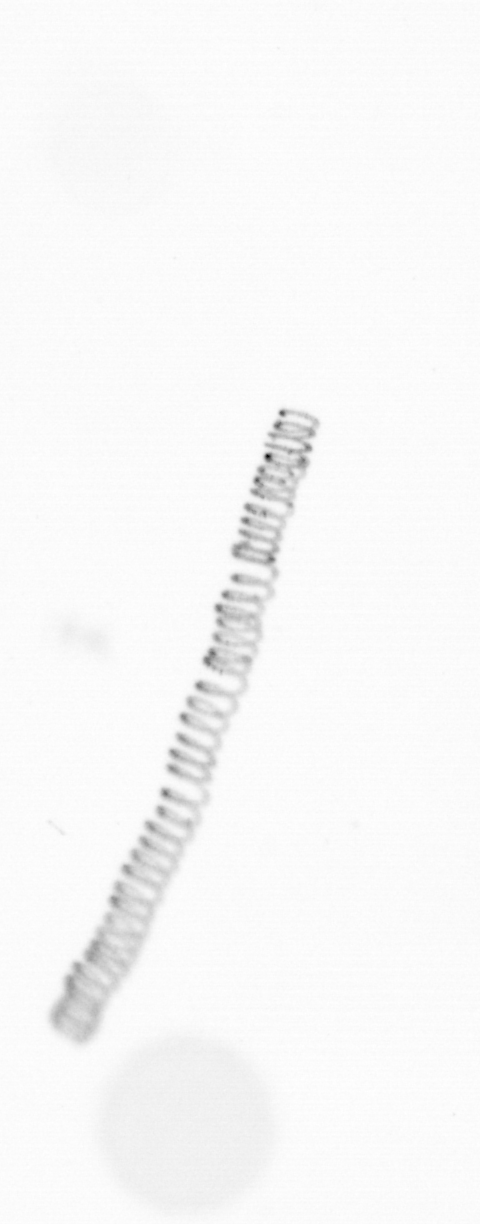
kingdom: Chromista
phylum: Ochrophyta
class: Bacillariophyceae
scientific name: Bacillariophyceae
